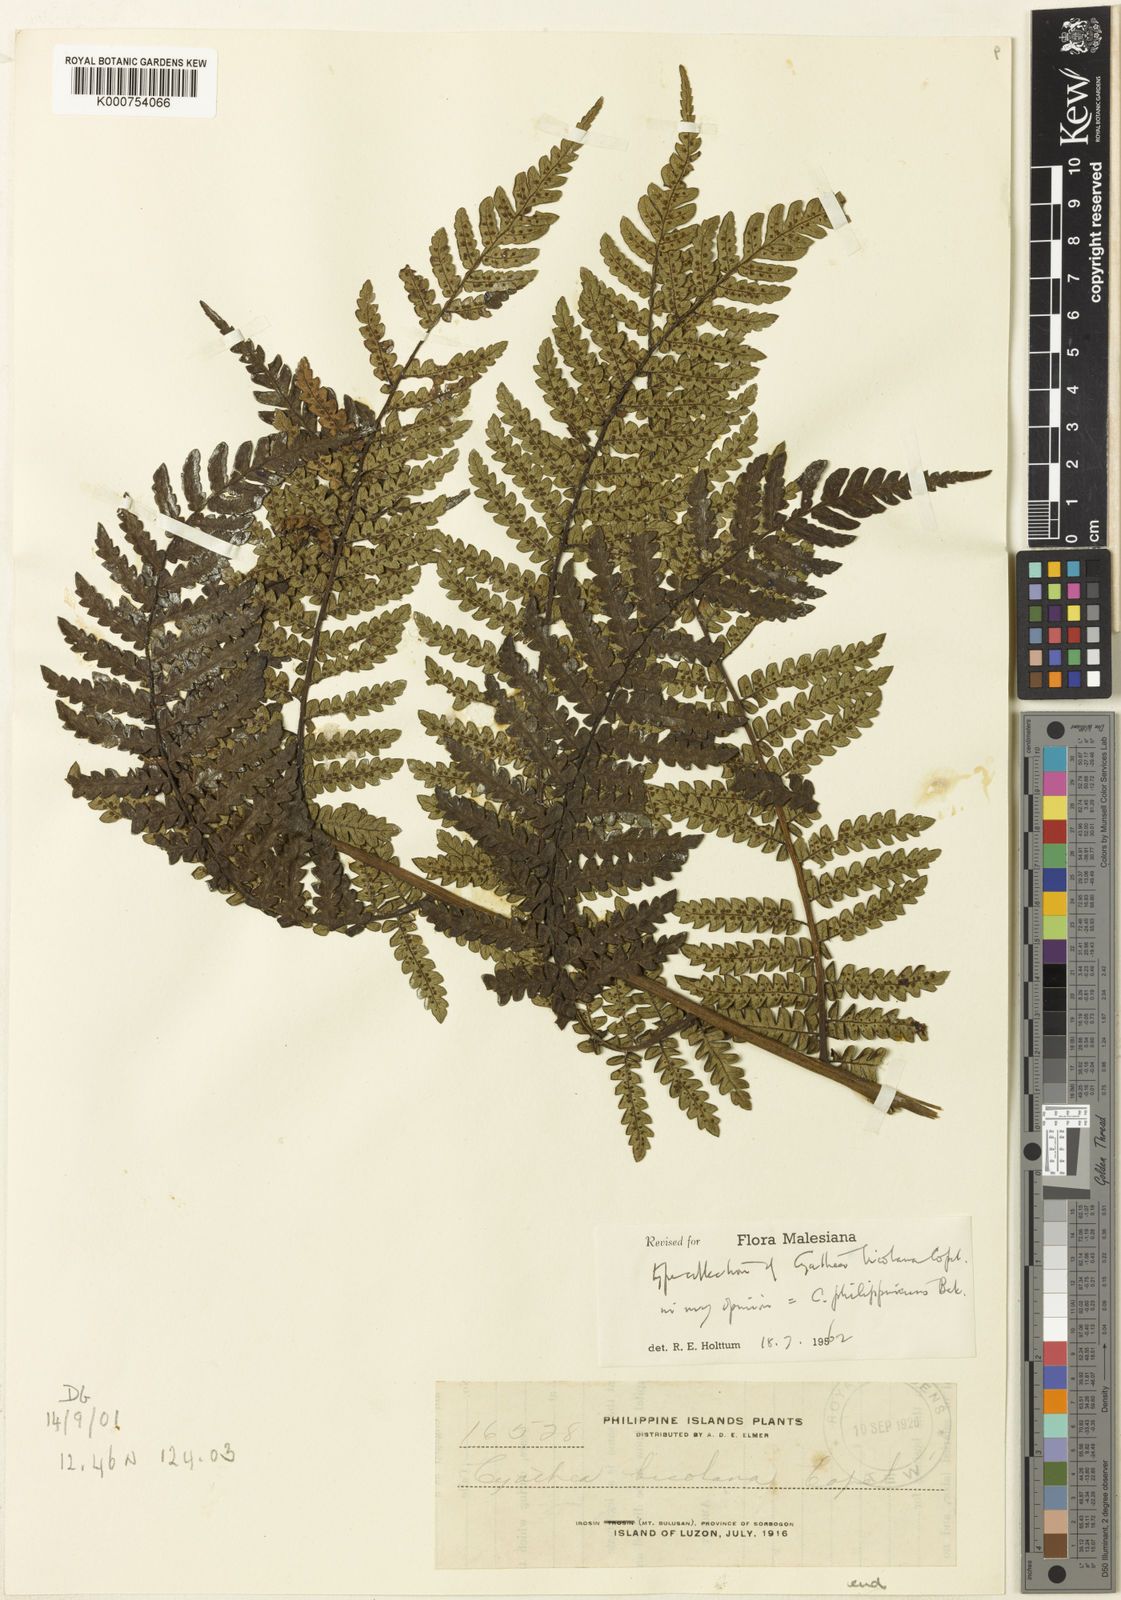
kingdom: Plantae
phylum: Tracheophyta
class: Polypodiopsida
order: Cyatheales
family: Cyatheaceae
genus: Sphaeropteris
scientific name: Sphaeropteris philippinensis
